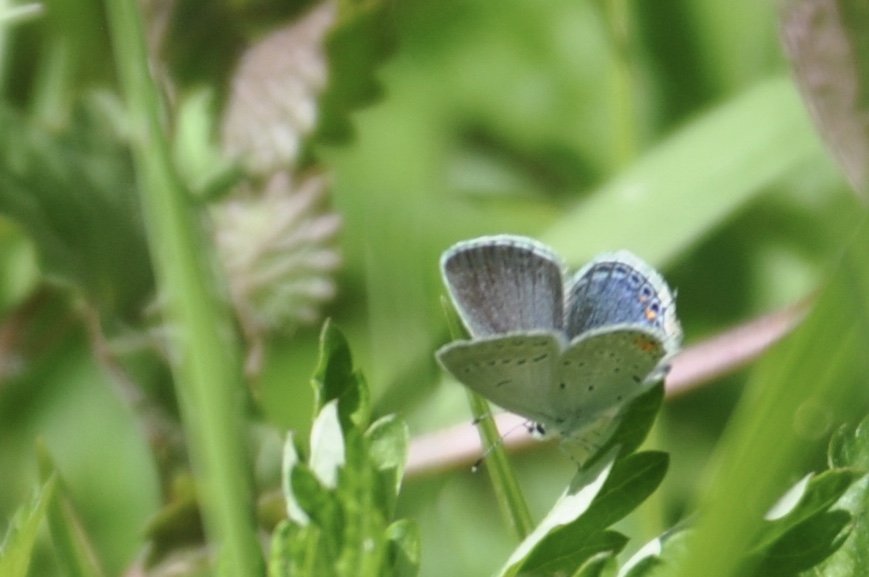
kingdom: Animalia
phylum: Arthropoda
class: Insecta
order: Lepidoptera
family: Lycaenidae
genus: Elkalyce
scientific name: Elkalyce comyntas
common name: Eastern Tailed-Blue
